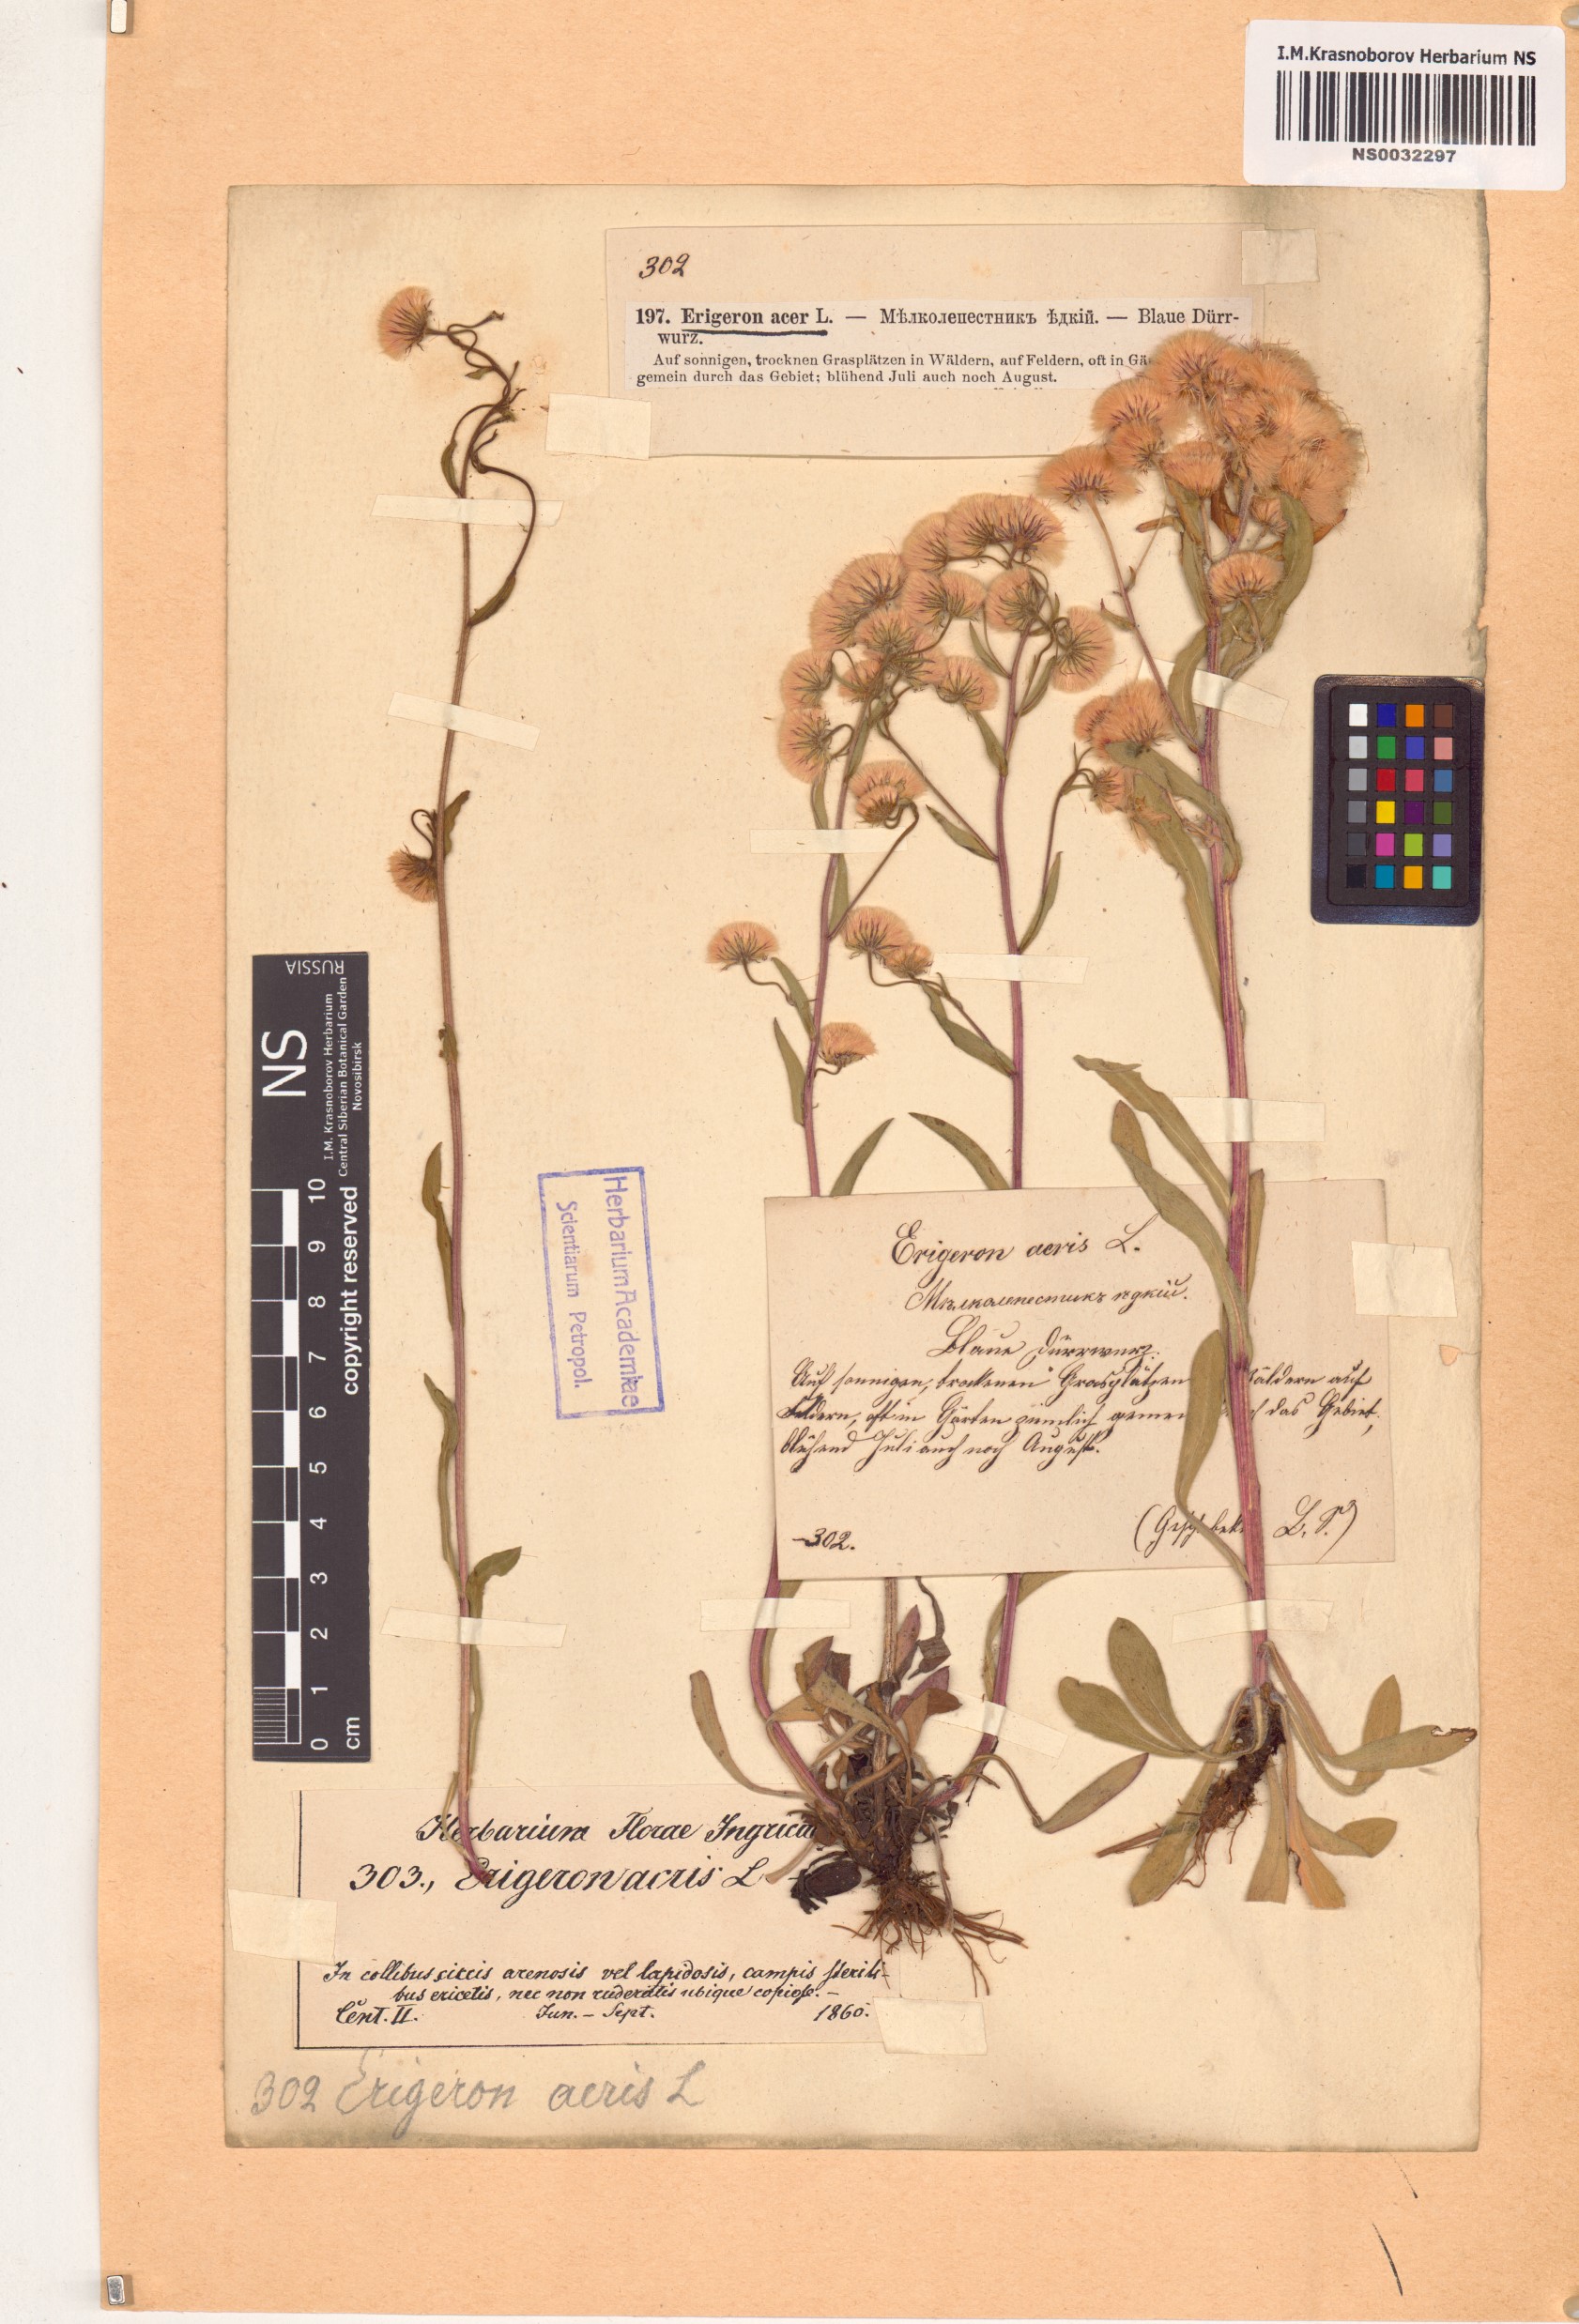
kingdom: Plantae
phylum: Tracheophyta
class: Magnoliopsida
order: Asterales
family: Asteraceae
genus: Erigeron
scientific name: Erigeron acris
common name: Blue fleabane
